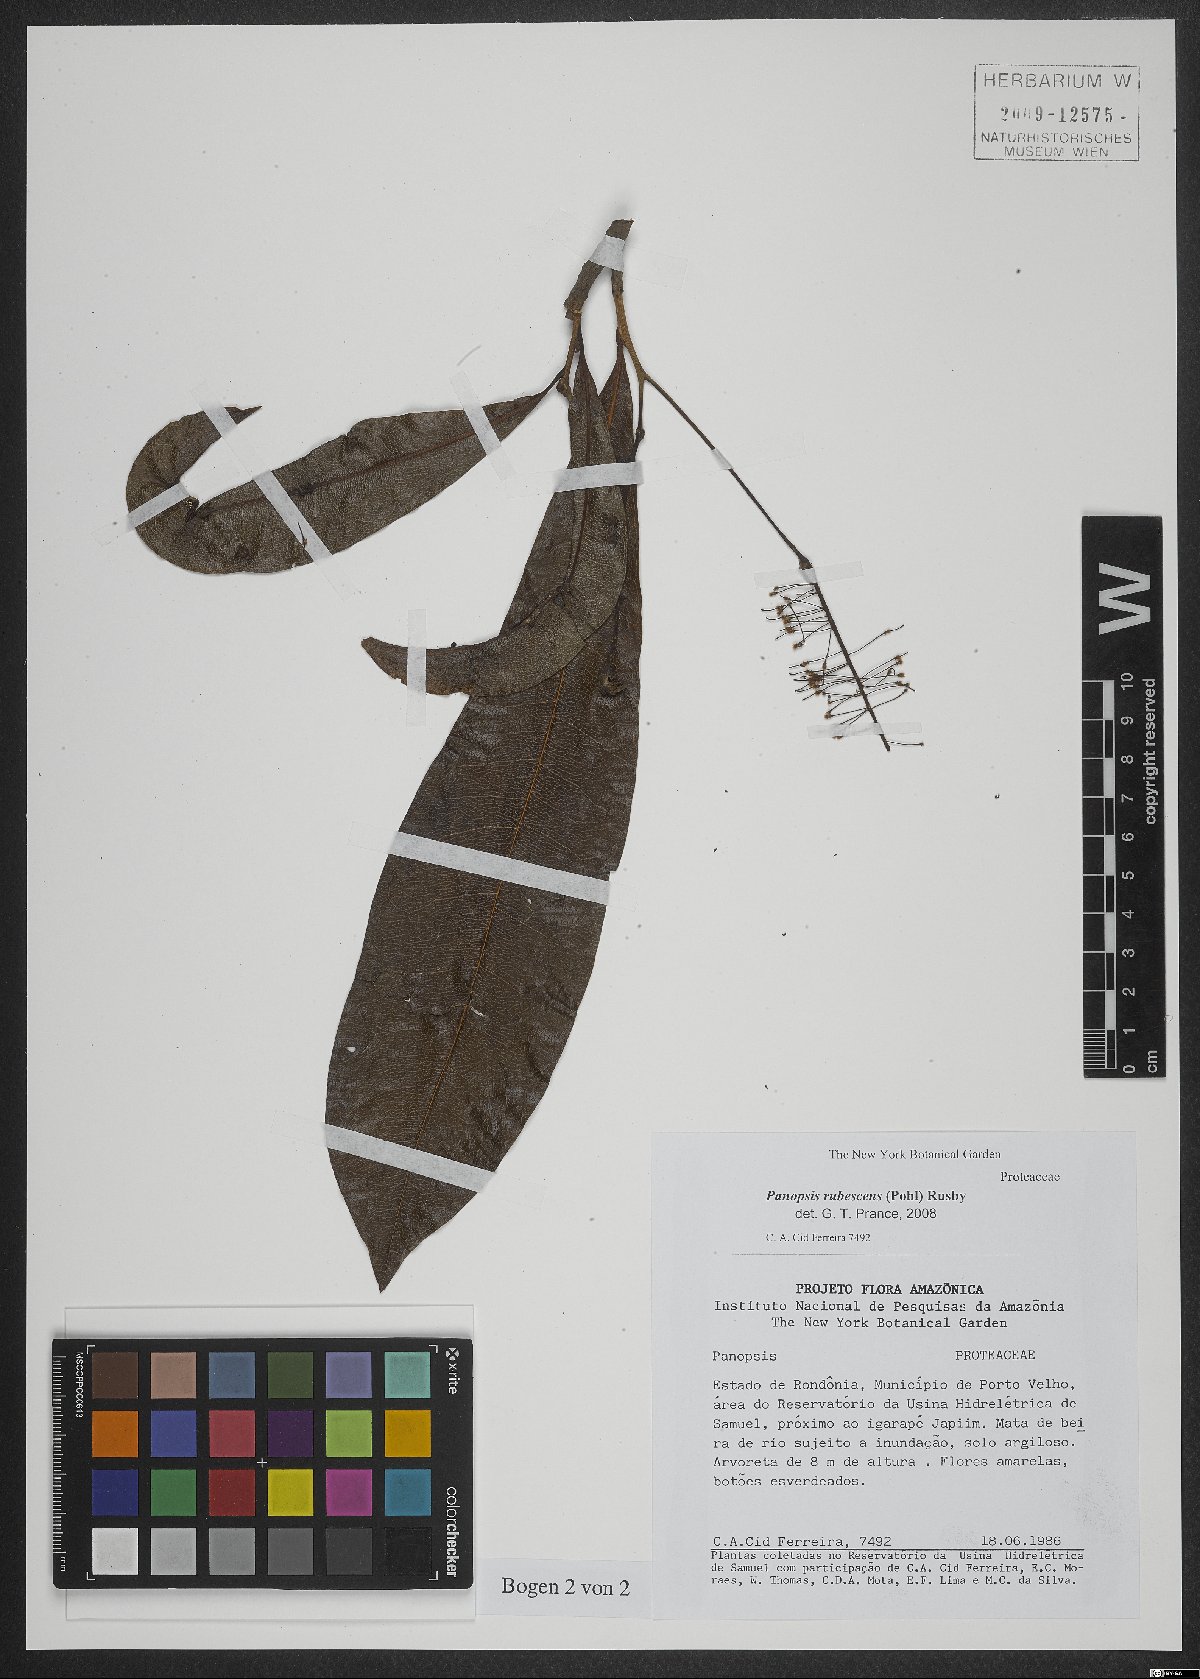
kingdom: Plantae
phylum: Tracheophyta
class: Magnoliopsida
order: Proteales
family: Proteaceae
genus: Panopsis
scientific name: Panopsis rubescens
